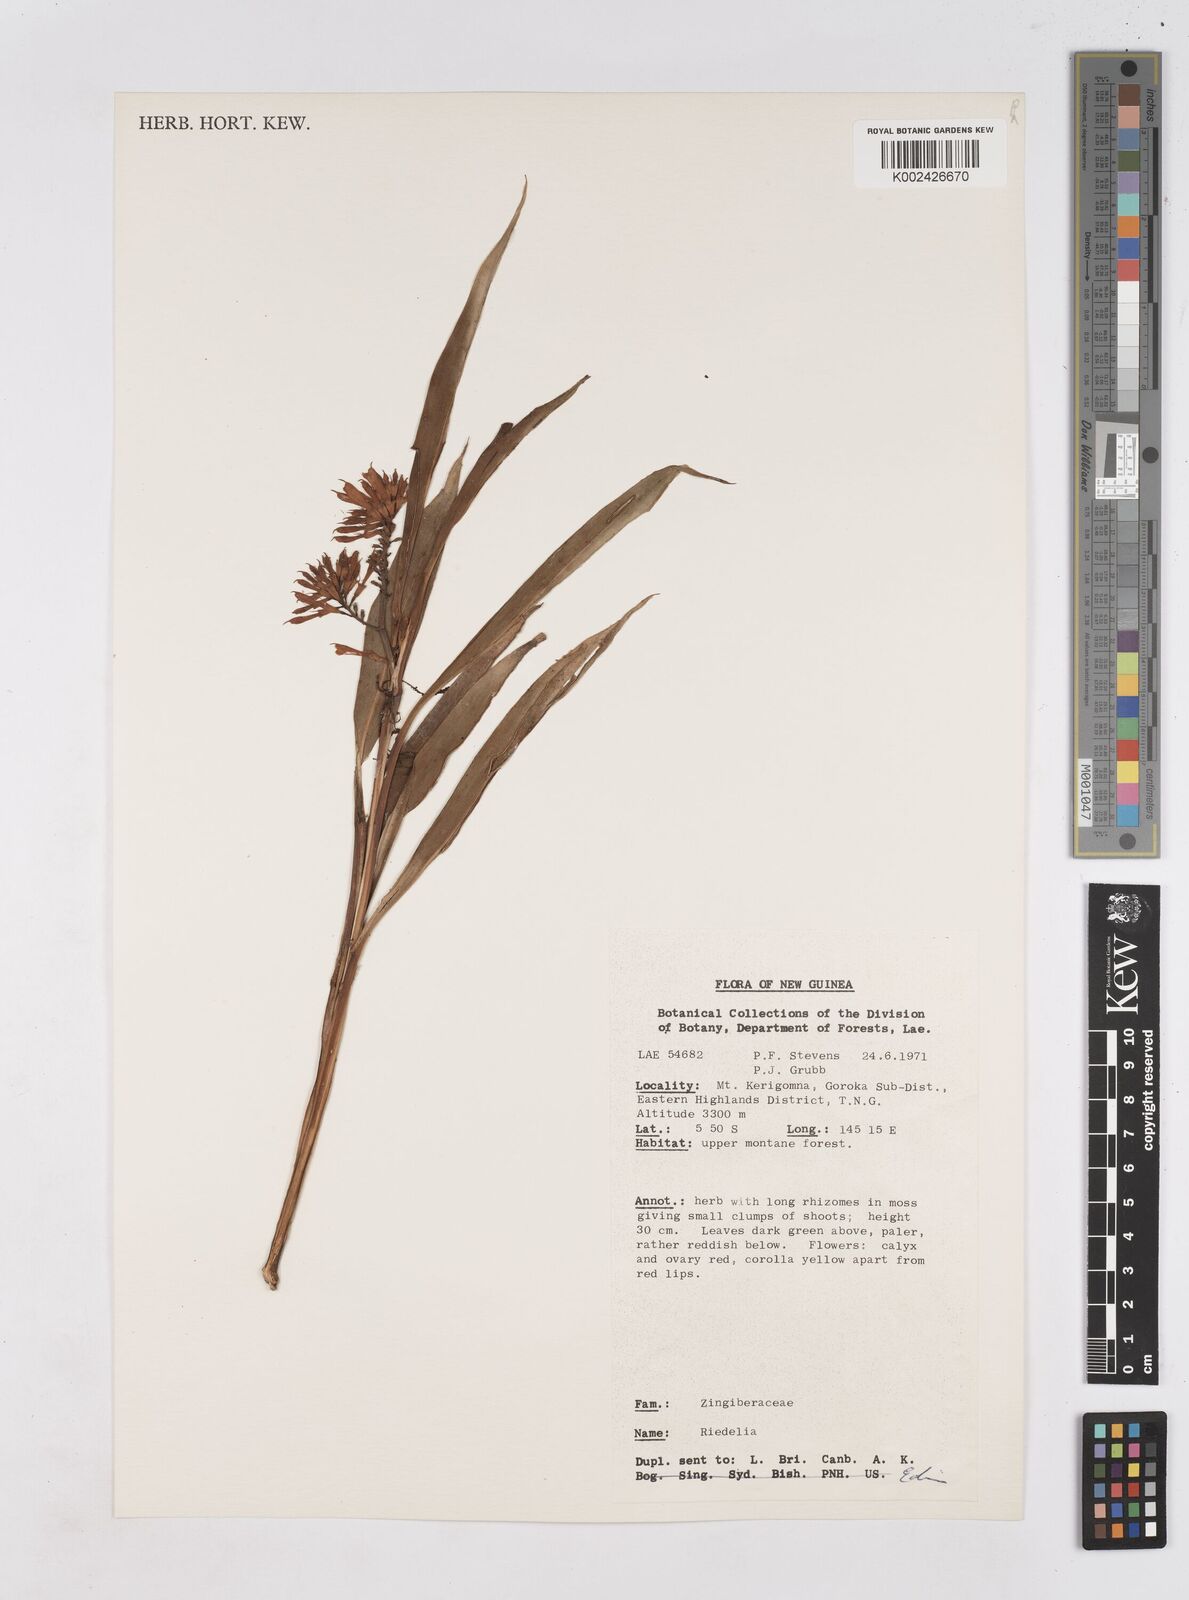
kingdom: Plantae
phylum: Tracheophyta
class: Liliopsida
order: Zingiberales
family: Zingiberaceae
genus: Riedelia
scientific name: Riedelia
